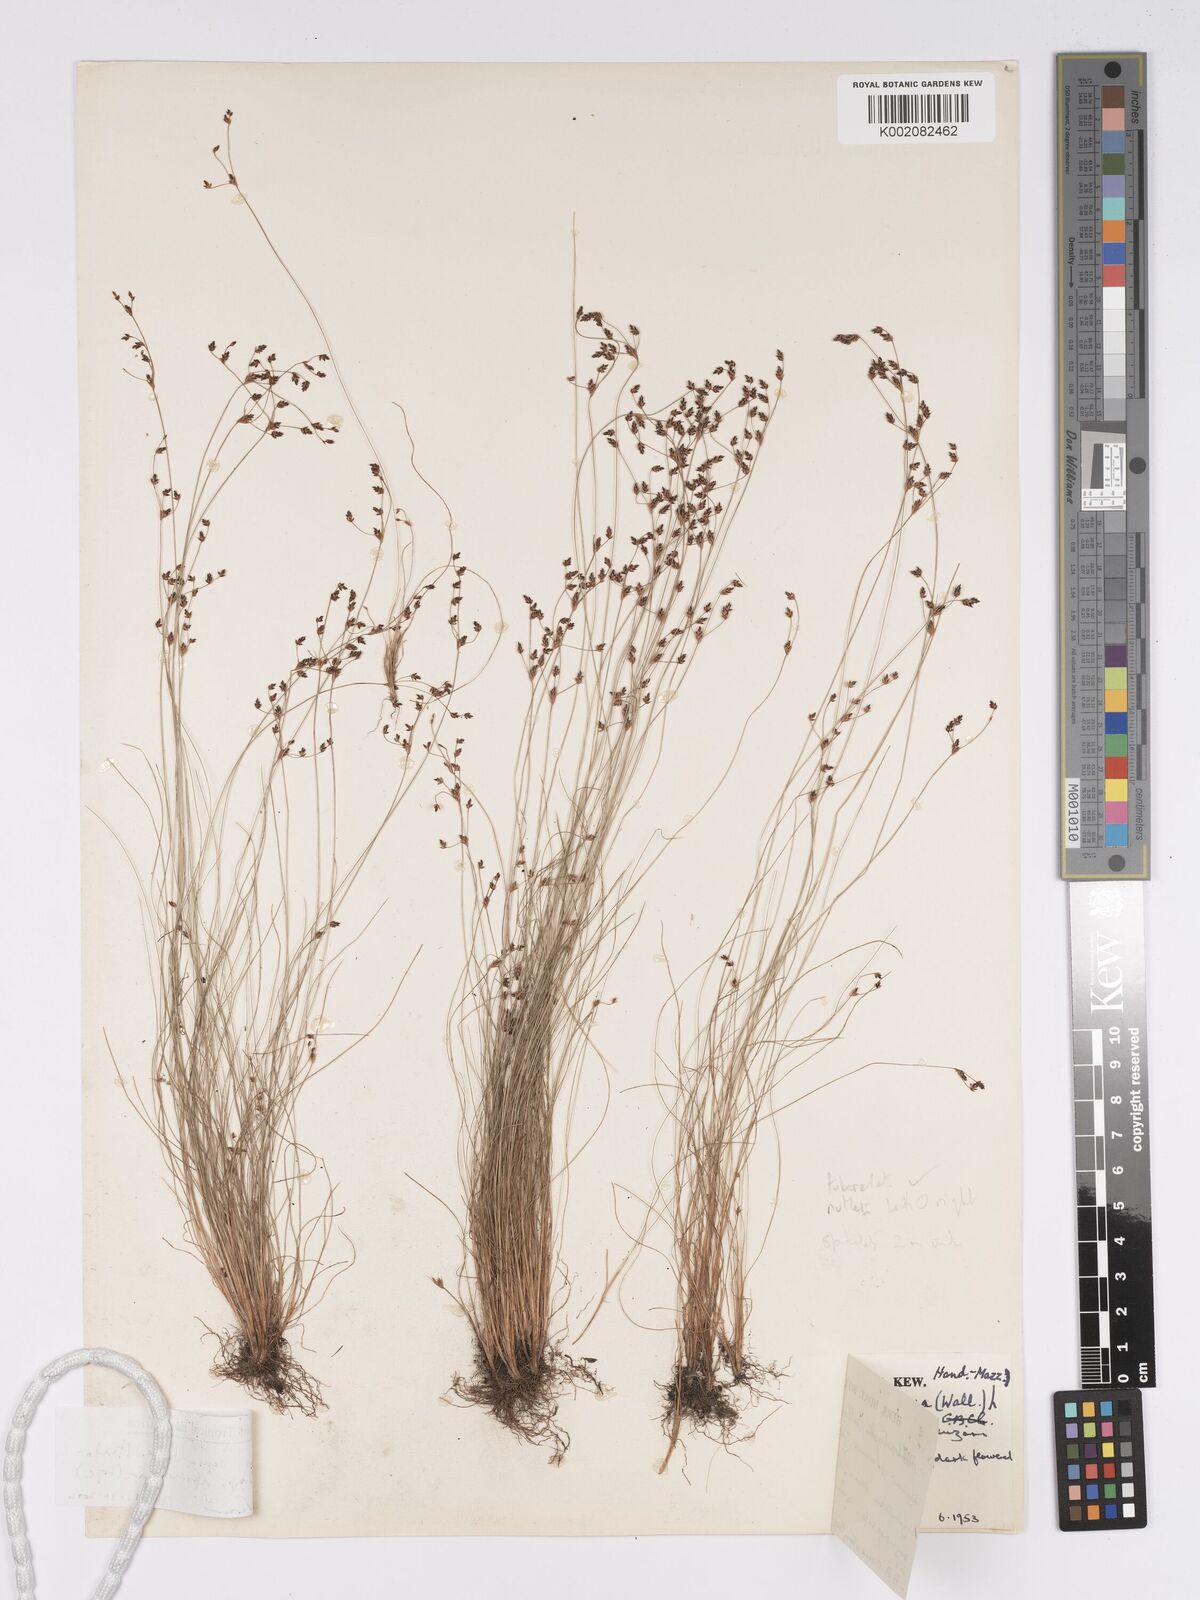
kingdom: Plantae
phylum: Tracheophyta
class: Liliopsida
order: Poales
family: Cyperaceae
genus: Bulbostylis
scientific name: Bulbostylis densa
